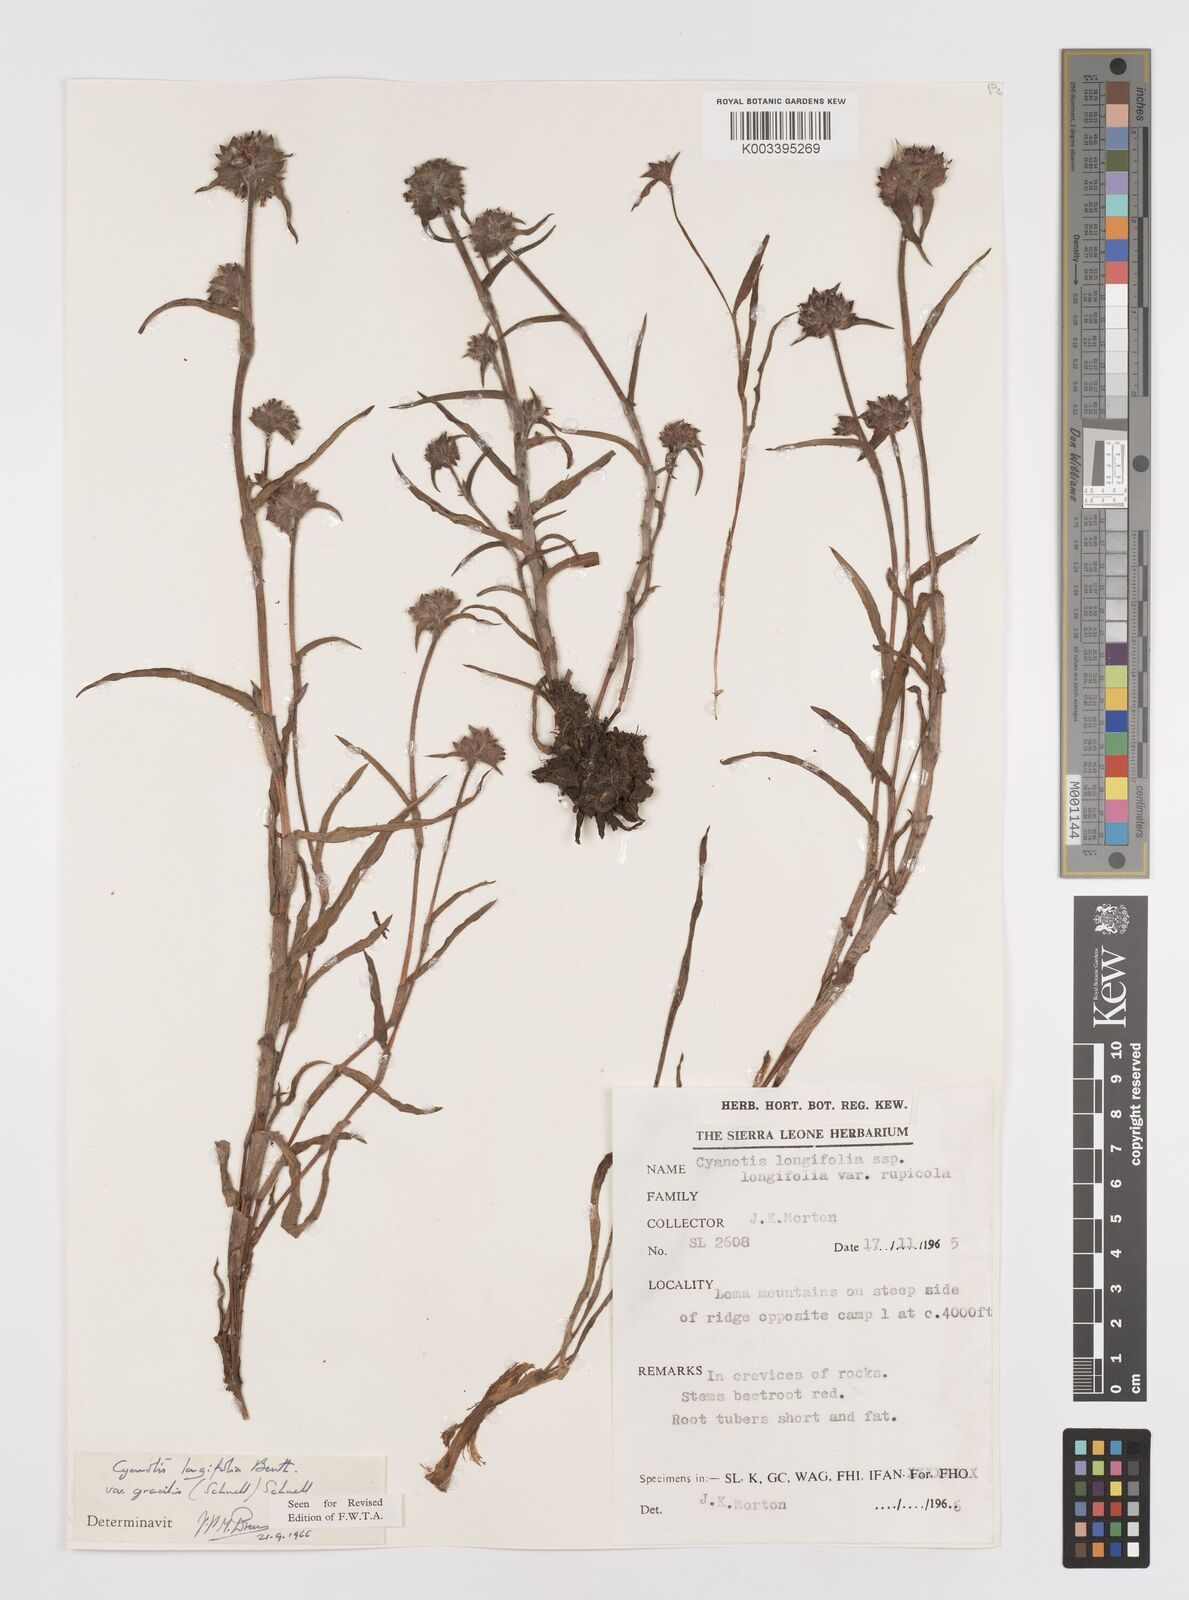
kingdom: Plantae
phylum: Tracheophyta
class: Liliopsida
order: Commelinales
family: Commelinaceae
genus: Cyanotis
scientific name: Cyanotis longifolia
